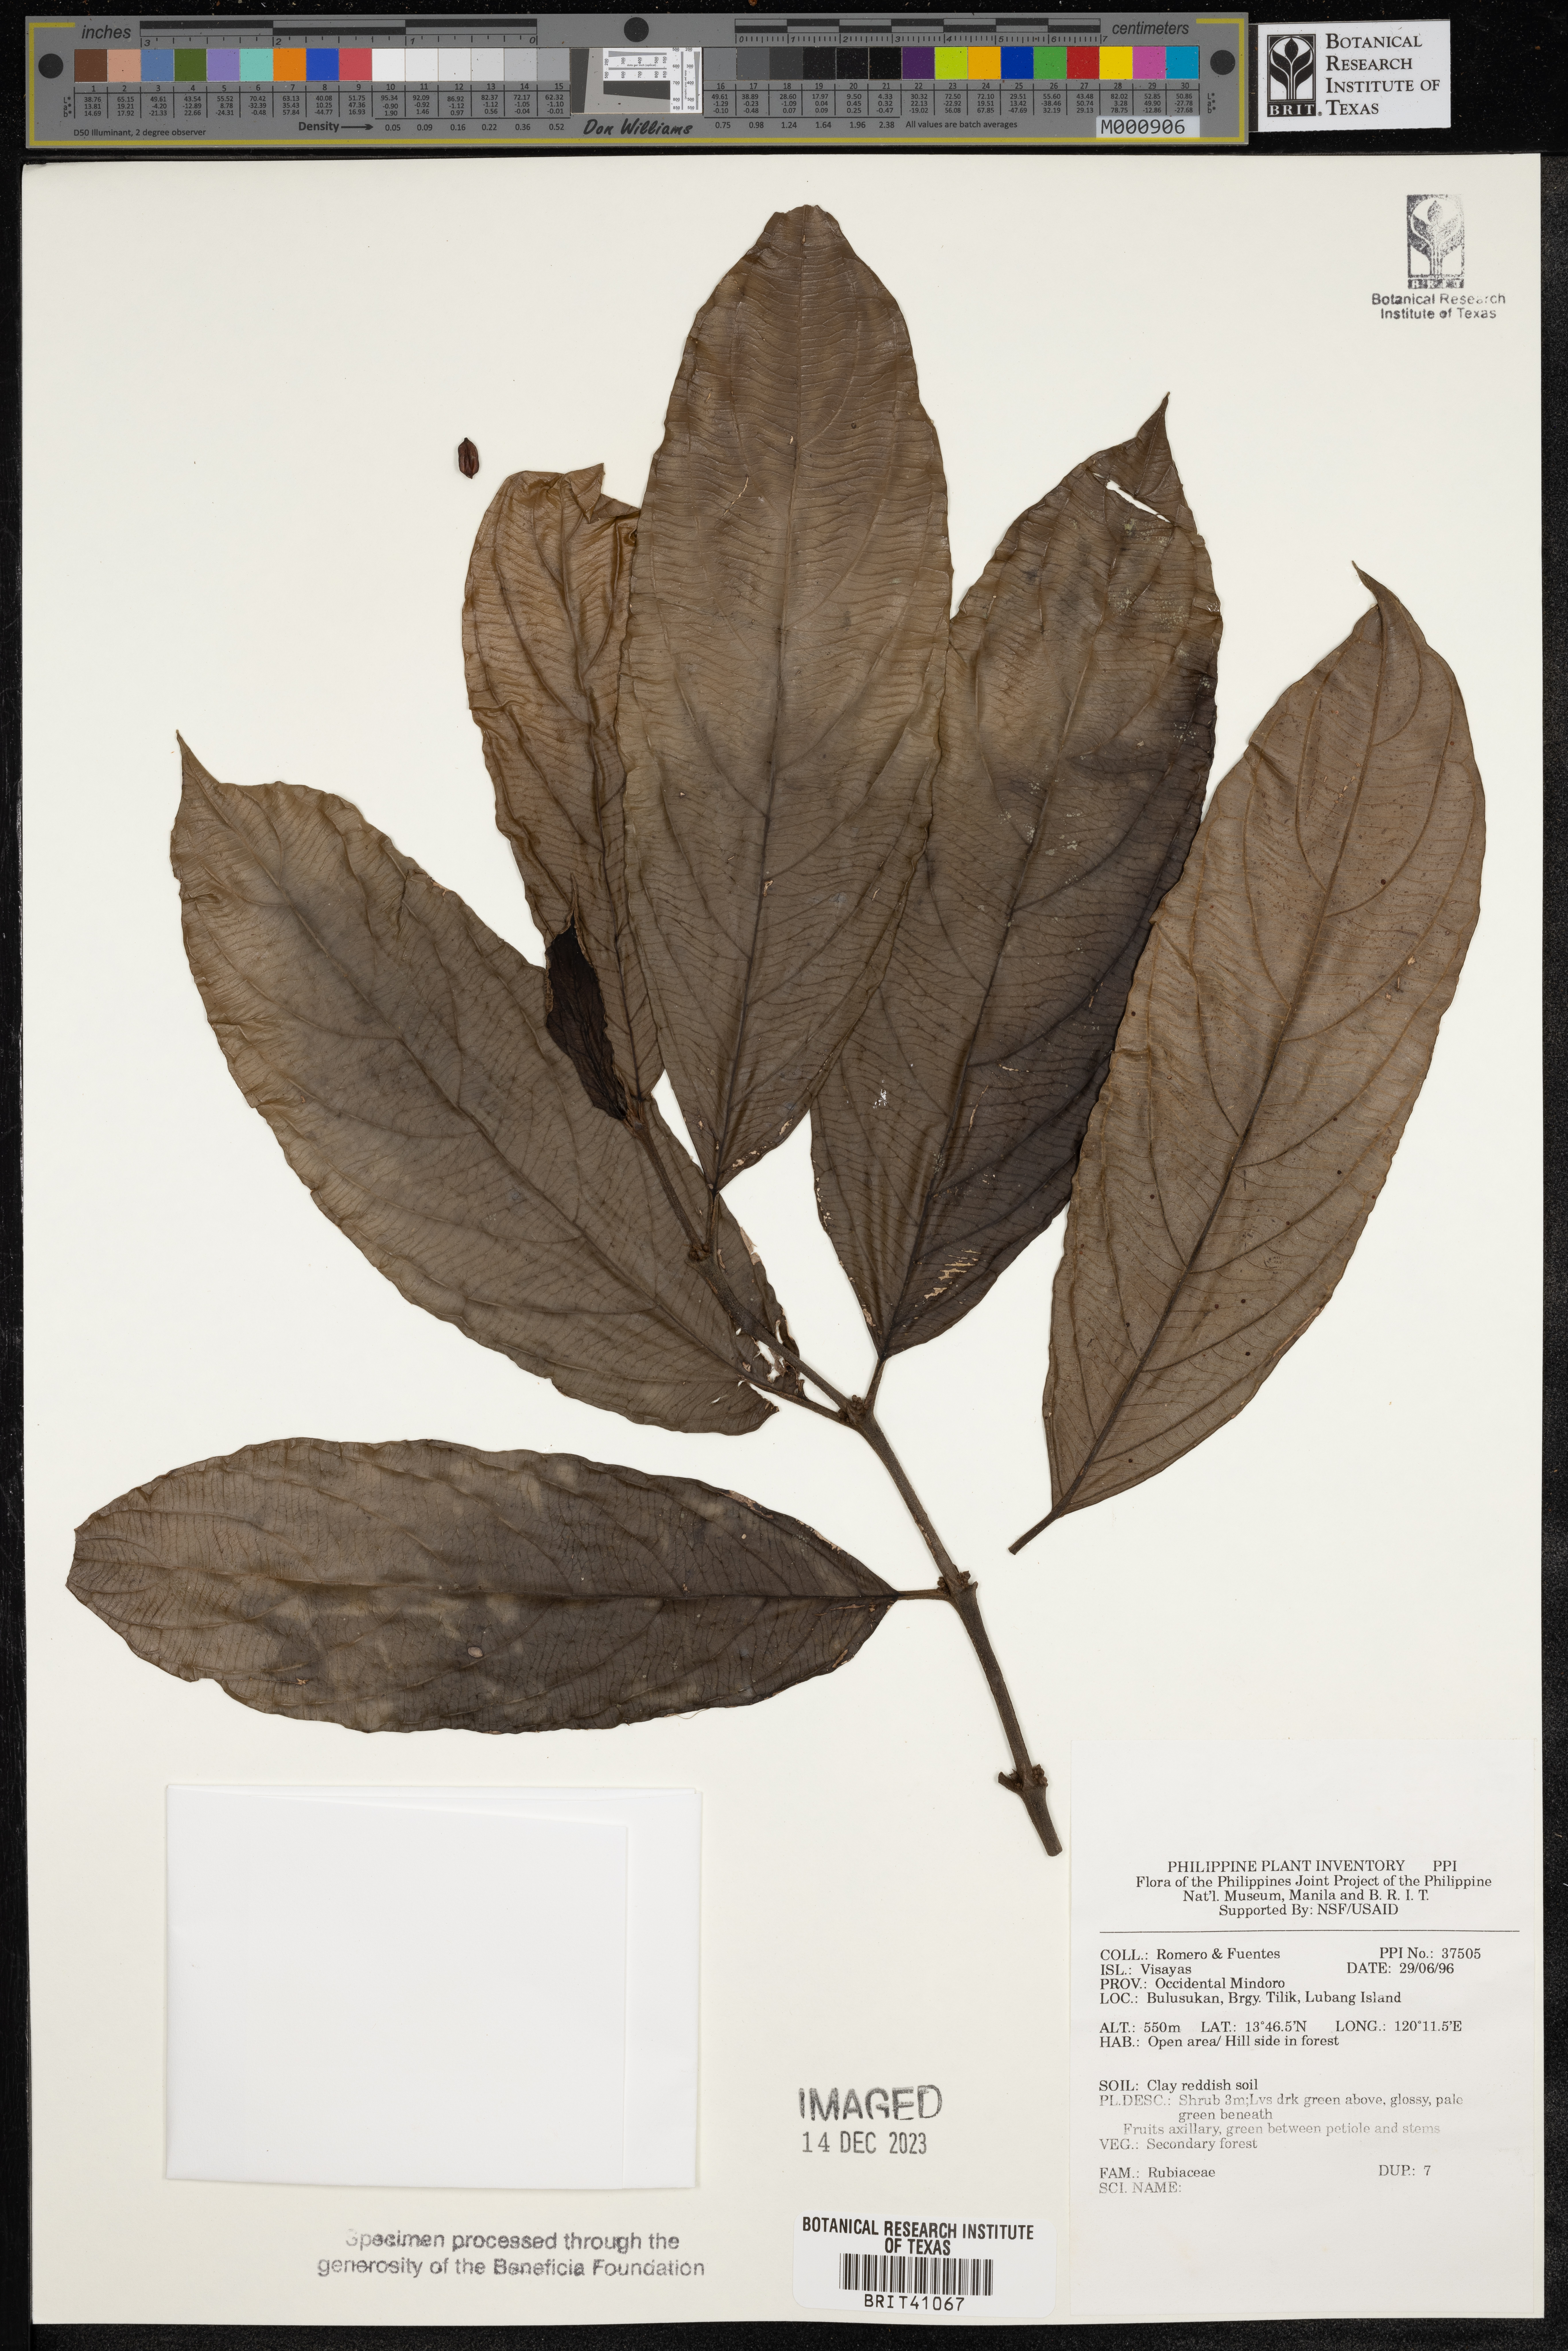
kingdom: Plantae
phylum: Tracheophyta
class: Magnoliopsida
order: Gentianales
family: Rubiaceae
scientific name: Rubiaceae
